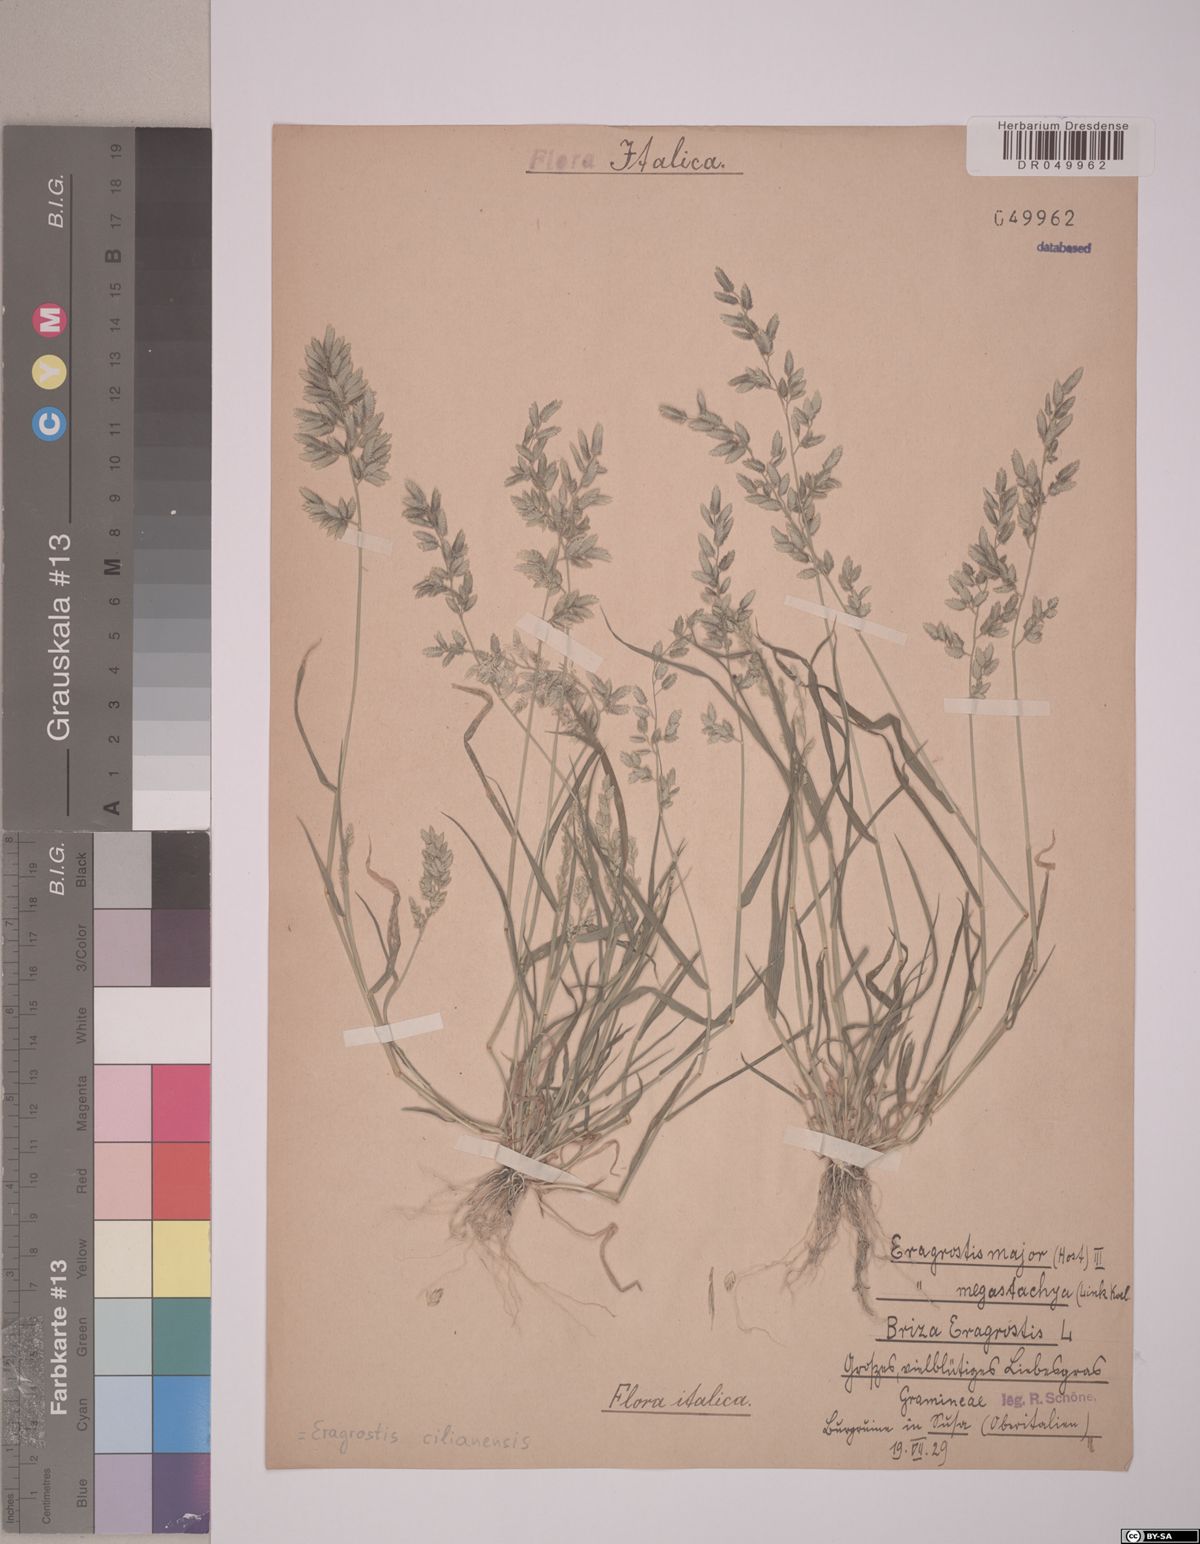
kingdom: Plantae
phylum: Tracheophyta
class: Liliopsida
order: Poales
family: Poaceae
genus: Eragrostis
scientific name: Eragrostis cilianensis
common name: Stinkgrass
